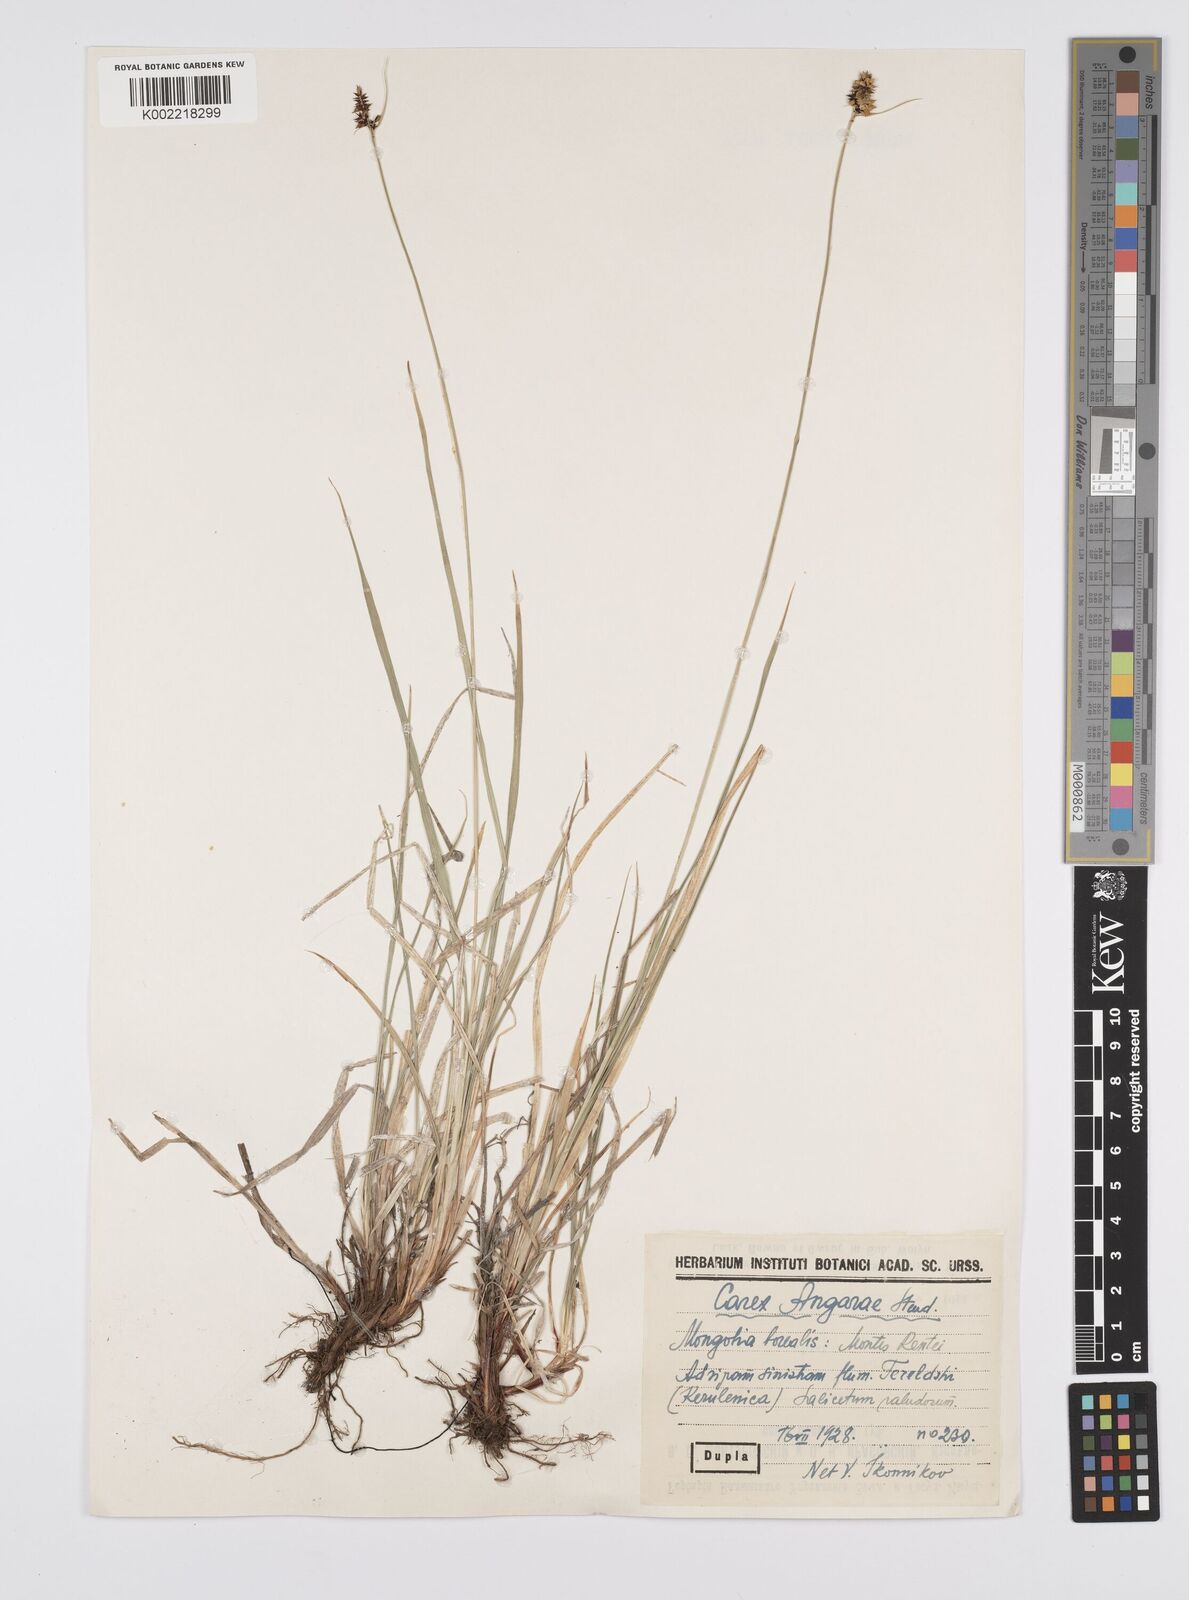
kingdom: Plantae
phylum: Tracheophyta
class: Liliopsida
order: Poales
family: Cyperaceae
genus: Carex
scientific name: Carex nigra
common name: Common sedge
